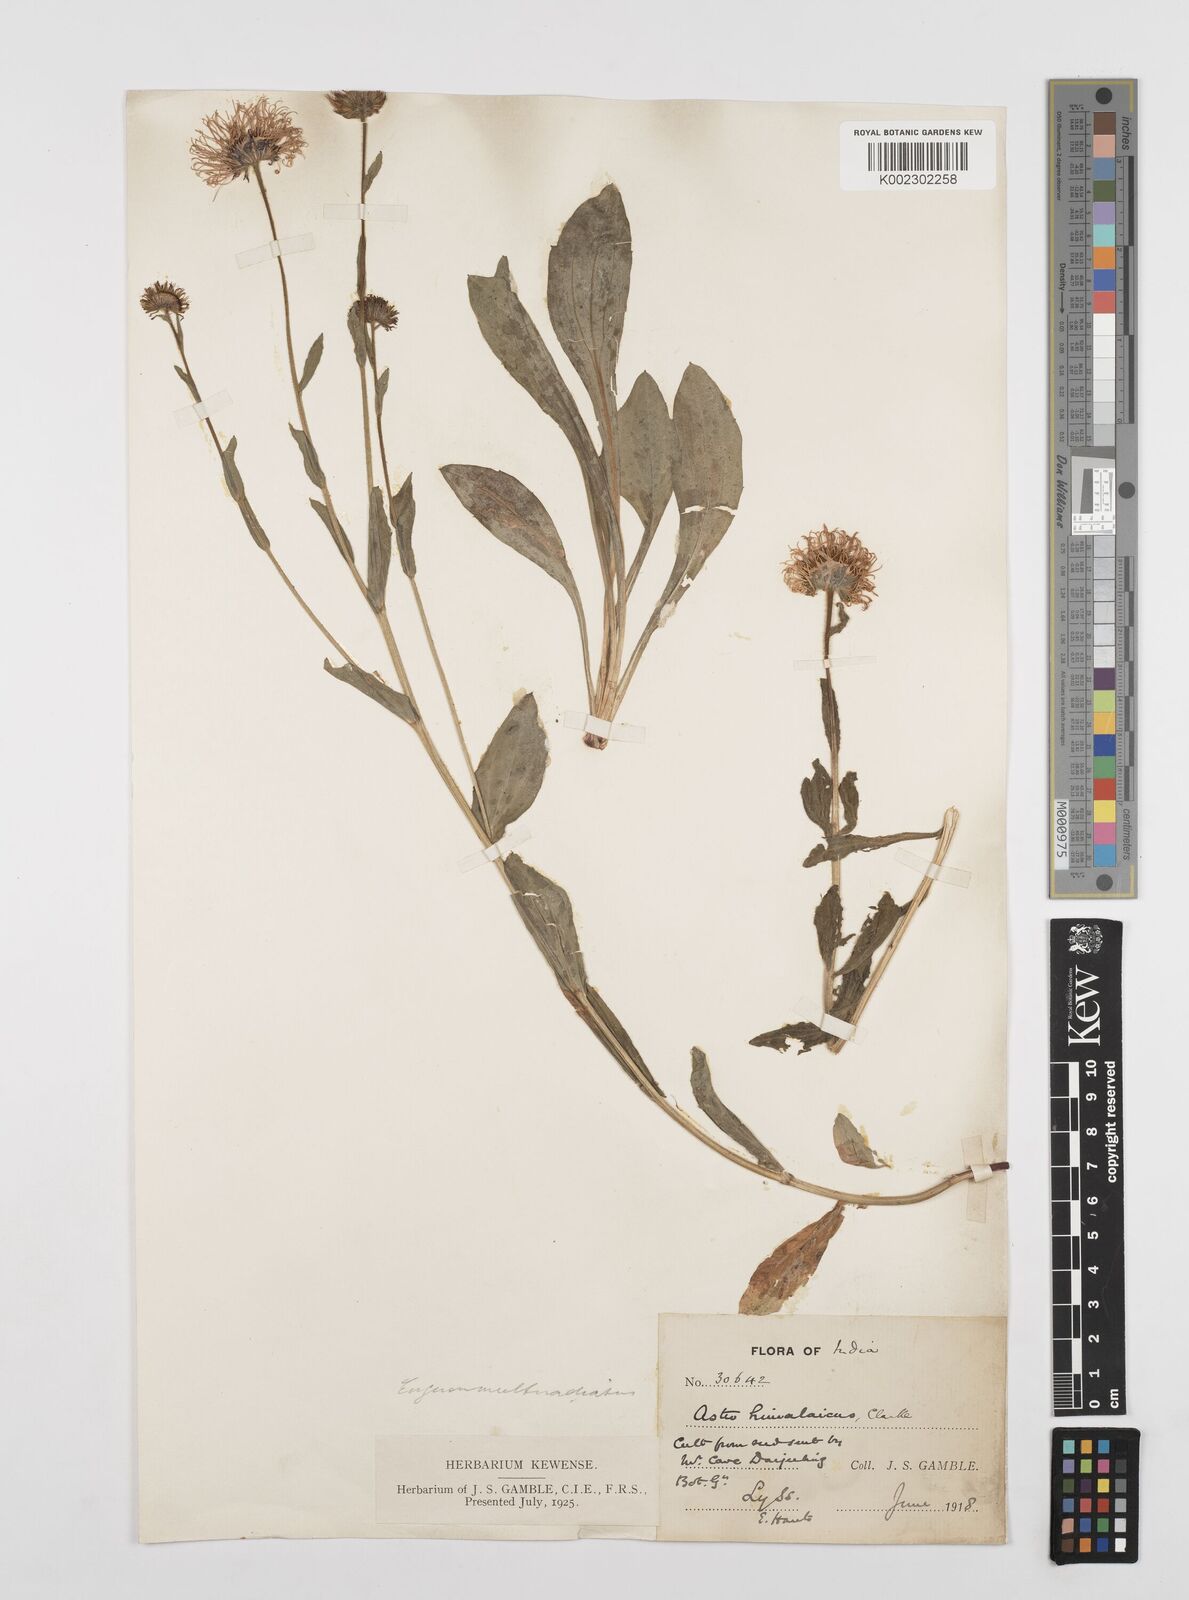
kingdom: Plantae
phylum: Tracheophyta
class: Magnoliopsida
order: Asterales
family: Asteraceae
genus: Erigeron
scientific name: Erigeron multiradiatus
